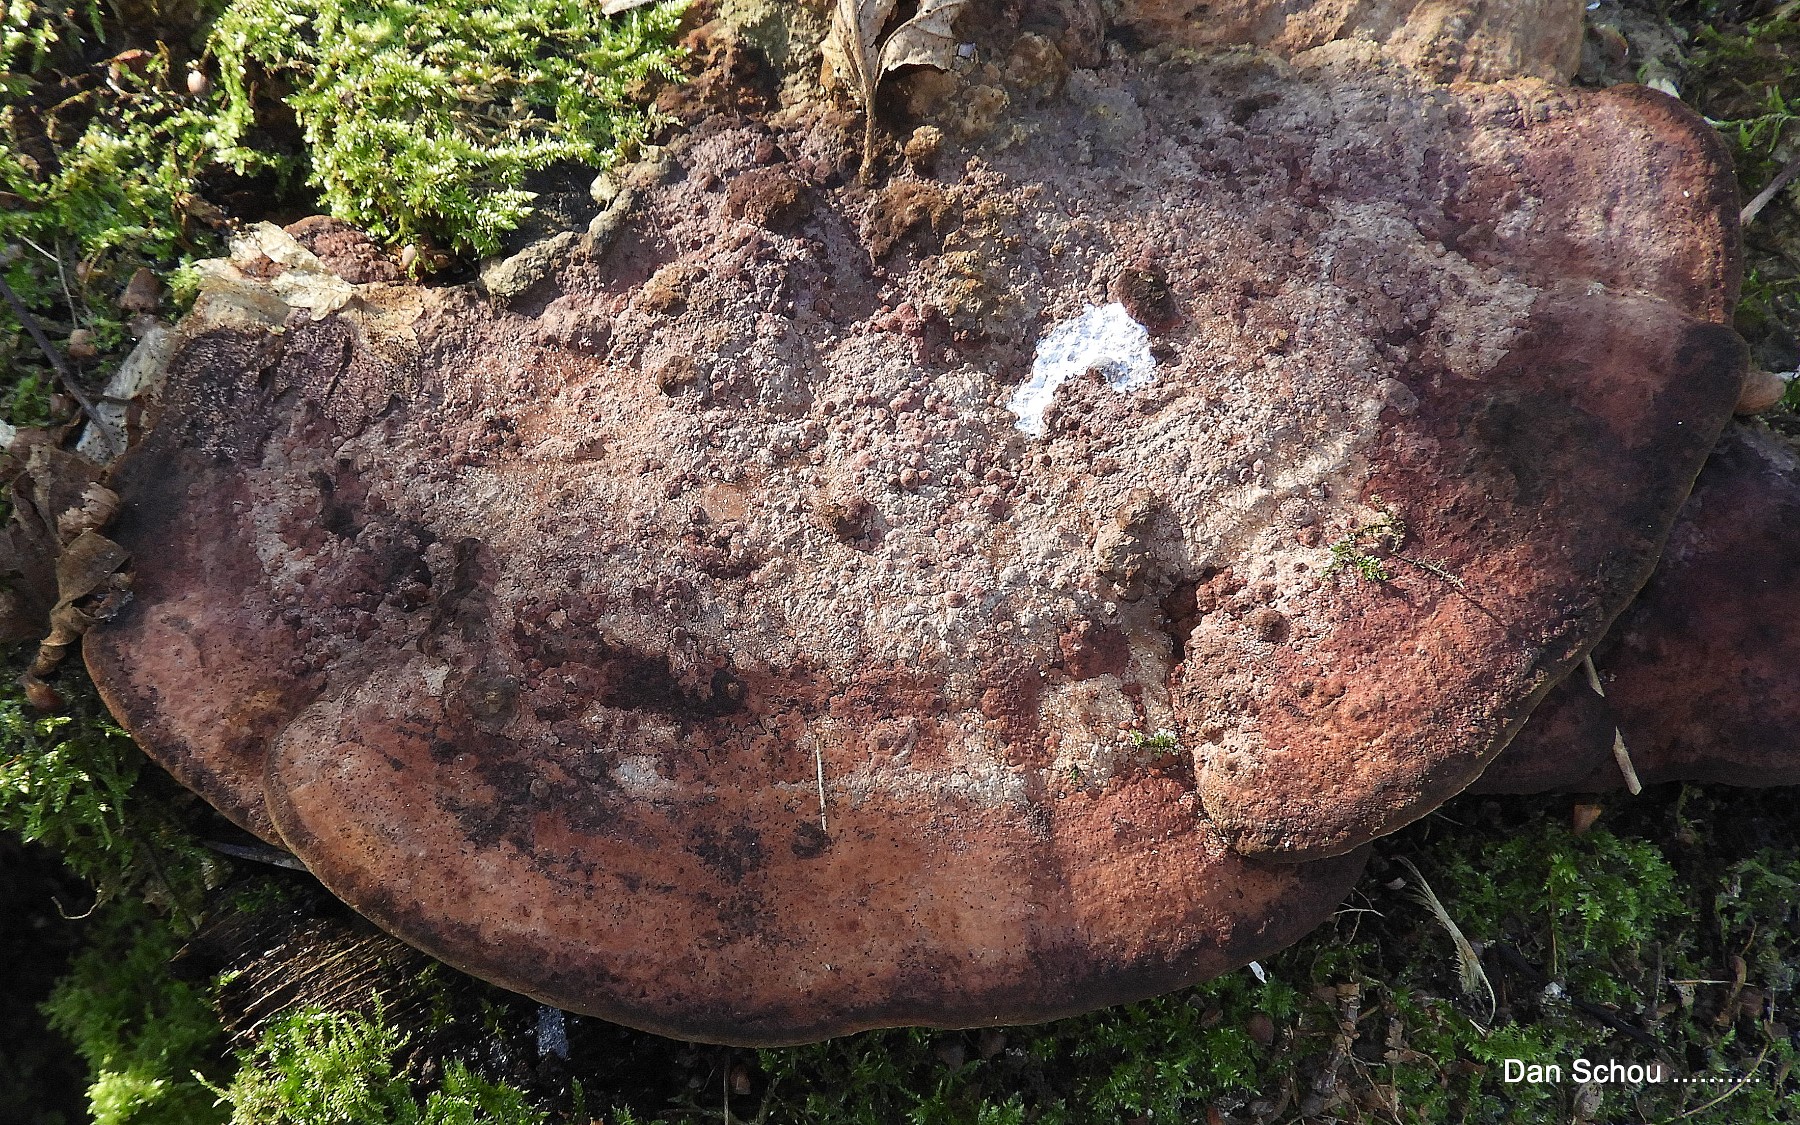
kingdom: Fungi
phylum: Basidiomycota
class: Agaricomycetes
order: Polyporales
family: Polyporaceae
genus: Daedaleopsis
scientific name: Daedaleopsis confragosa
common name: rødmende læderporesvamp
